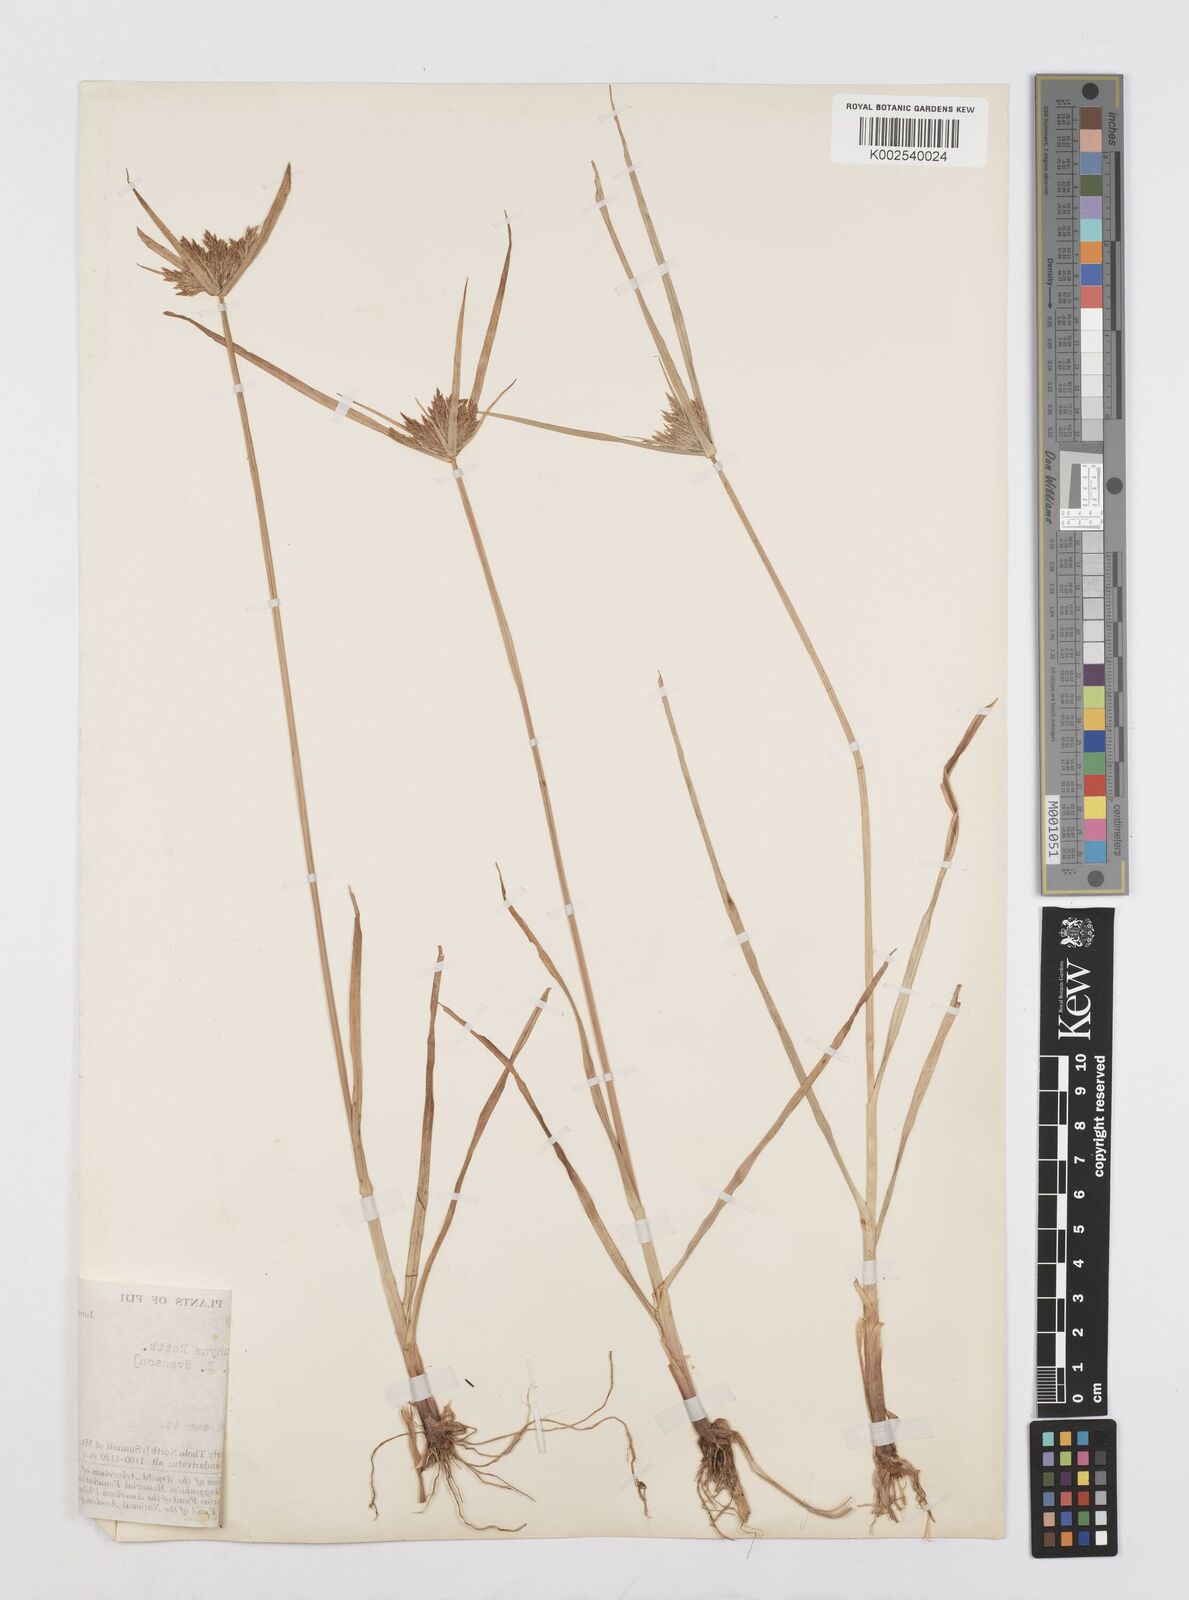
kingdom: Plantae
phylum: Tracheophyta
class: Liliopsida
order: Poales
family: Cyperaceae
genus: Cyperus
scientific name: Cyperus polystachyos
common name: Bunchy flat sedge
